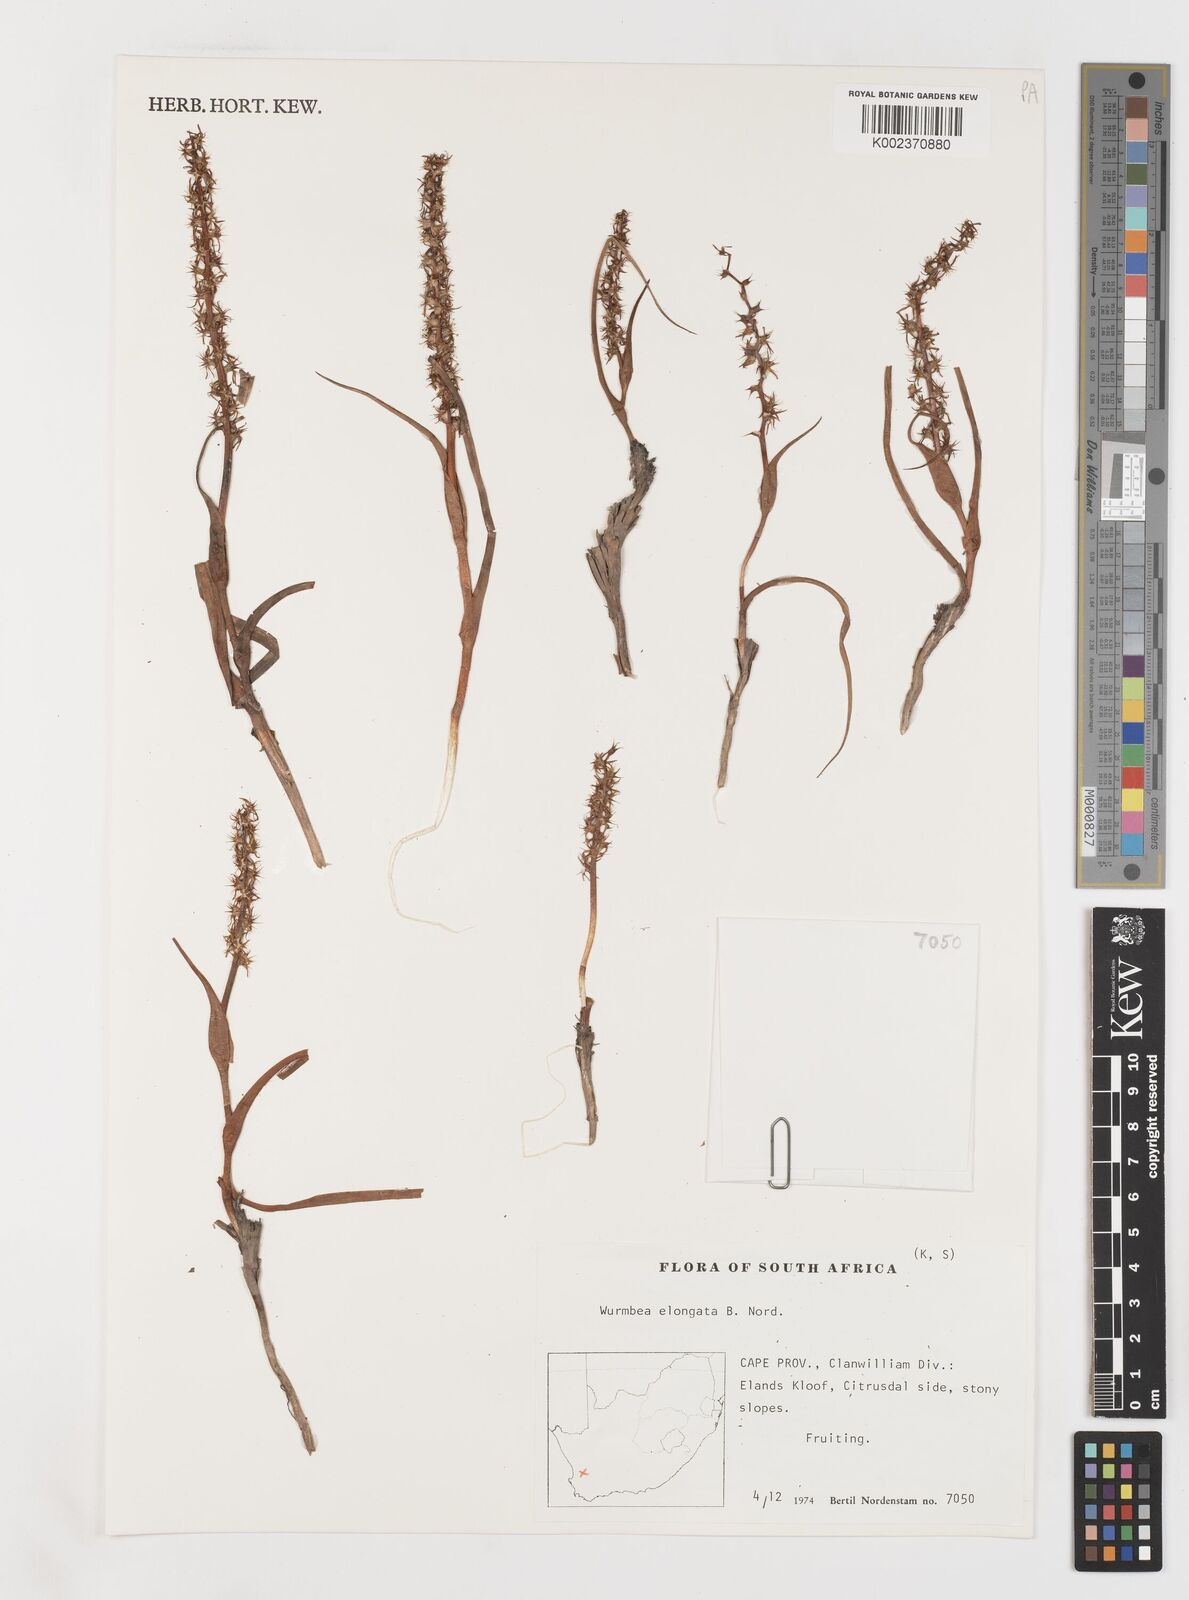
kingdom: Plantae
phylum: Tracheophyta
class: Liliopsida
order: Liliales
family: Colchicaceae
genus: Wurmbea
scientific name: Wurmbea elongata
